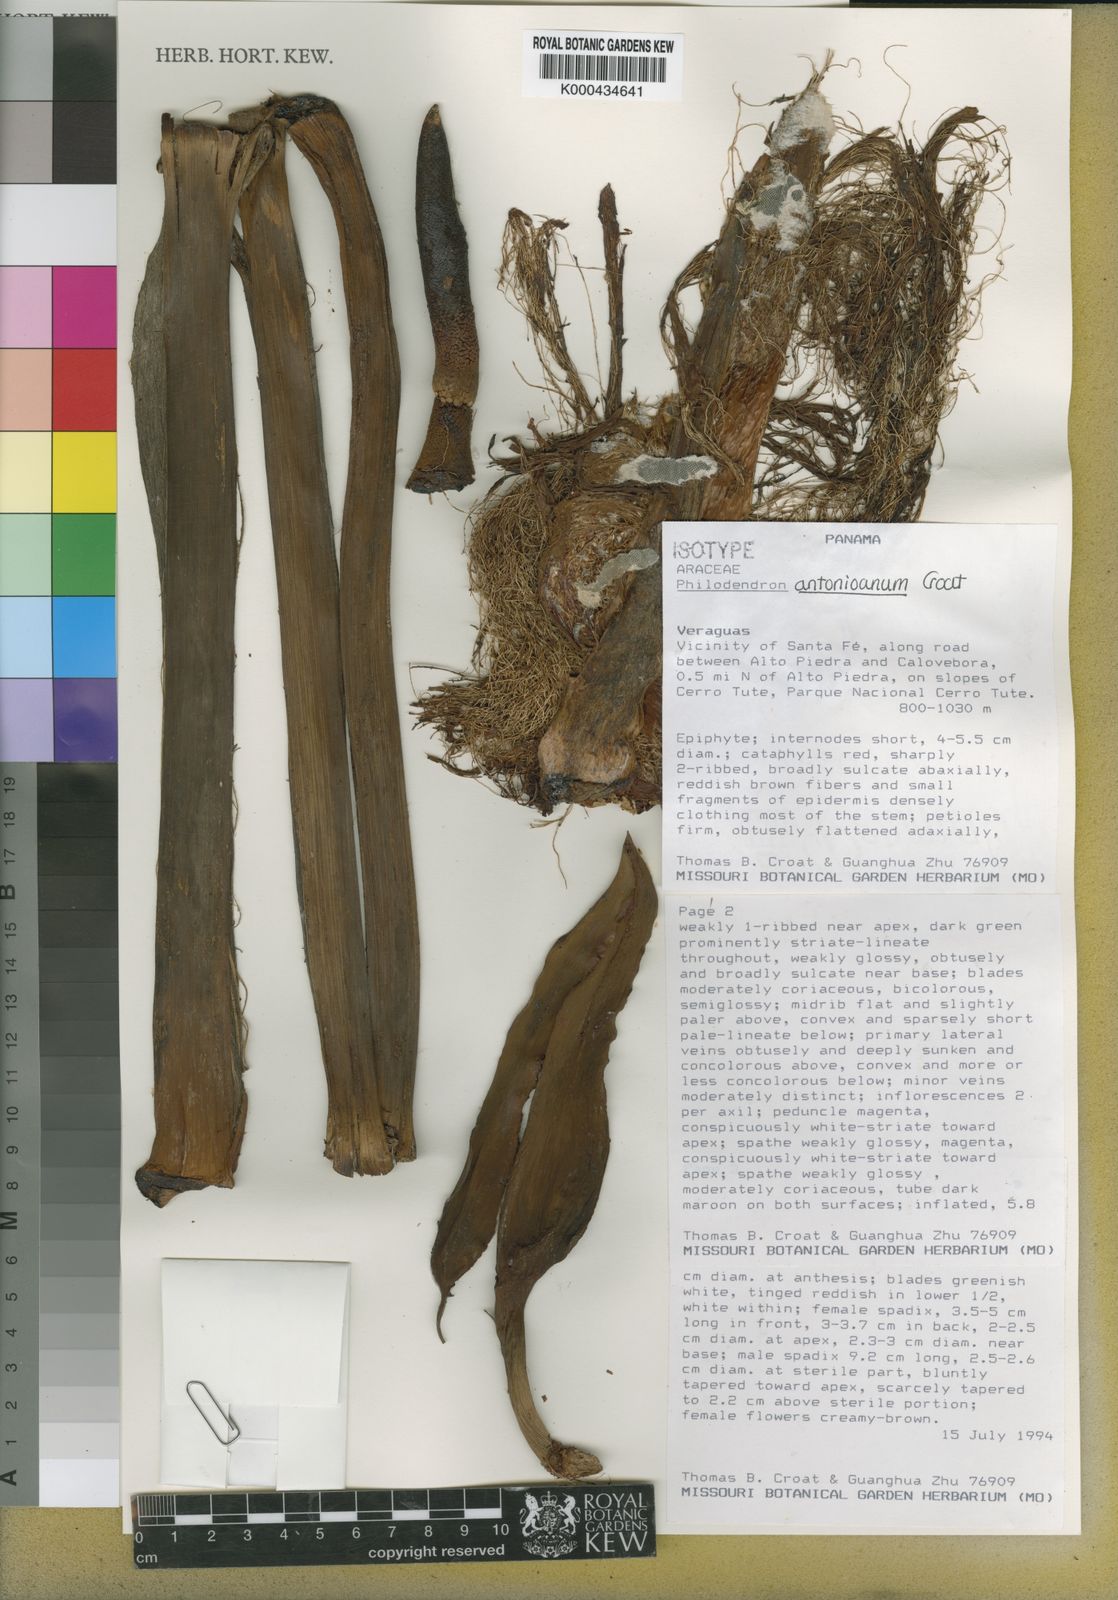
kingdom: Plantae
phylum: Tracheophyta
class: Liliopsida
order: Alismatales
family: Araceae
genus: Philodendron
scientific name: Philodendron antonioanum
